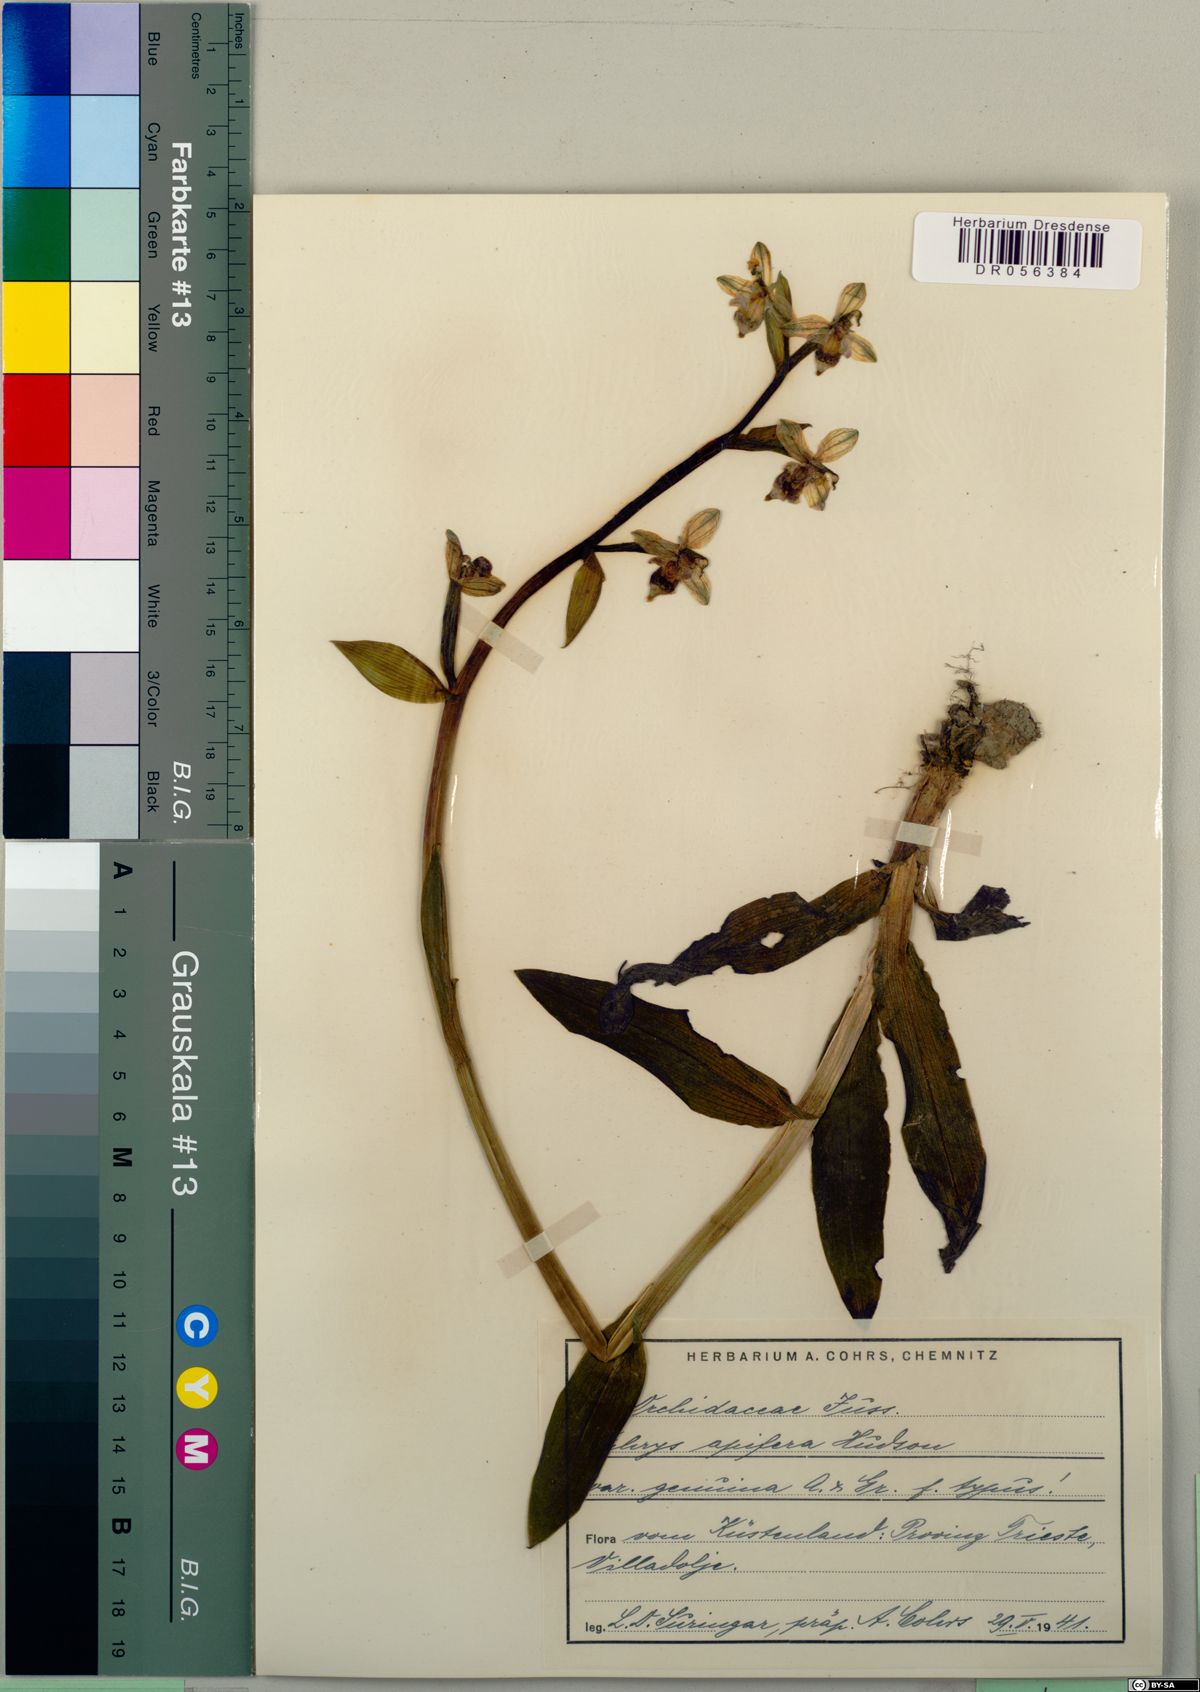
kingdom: Plantae
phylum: Tracheophyta
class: Liliopsida
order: Asparagales
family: Orchidaceae
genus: Ophrys
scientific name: Ophrys apifera
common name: Bee orchid
